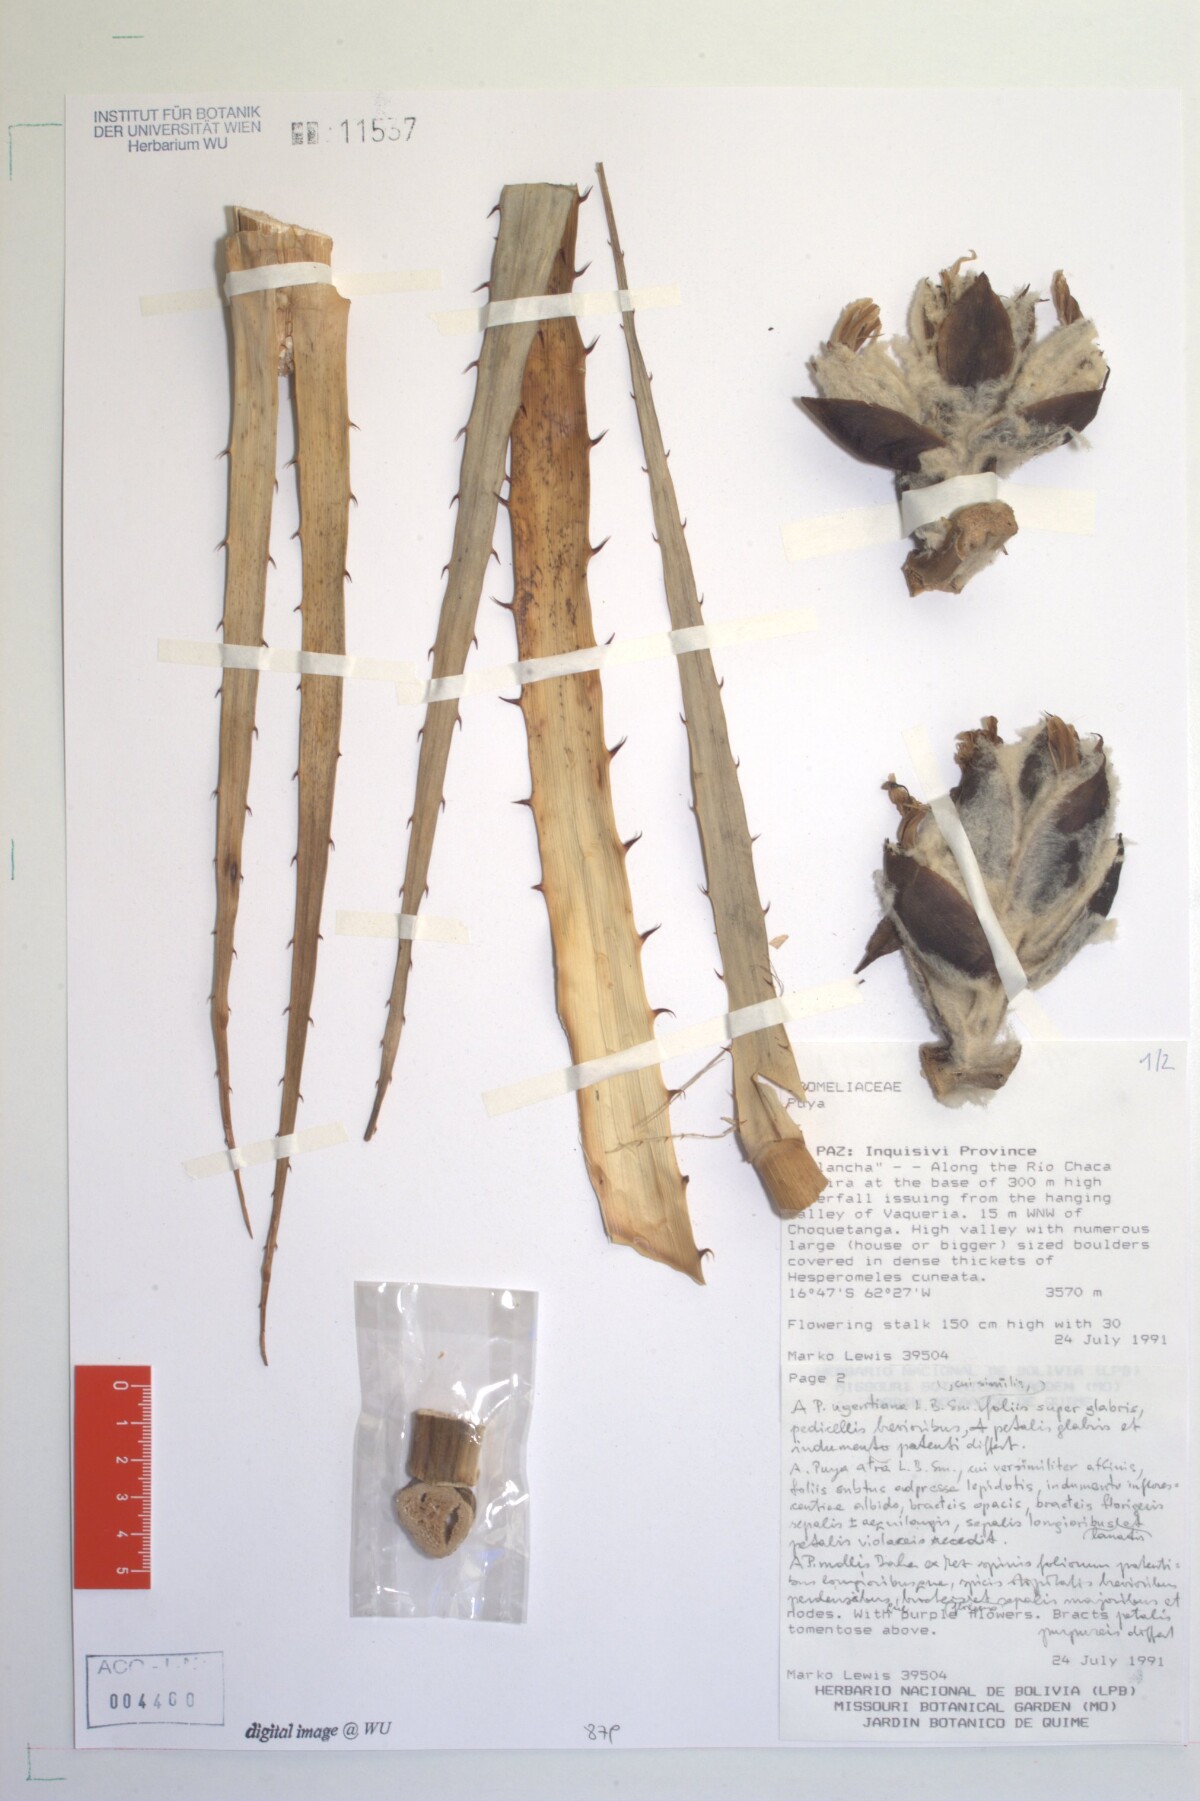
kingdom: Plantae
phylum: Tracheophyta
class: Liliopsida
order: Poales
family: Bromeliaceae
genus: Puya
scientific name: Puya
